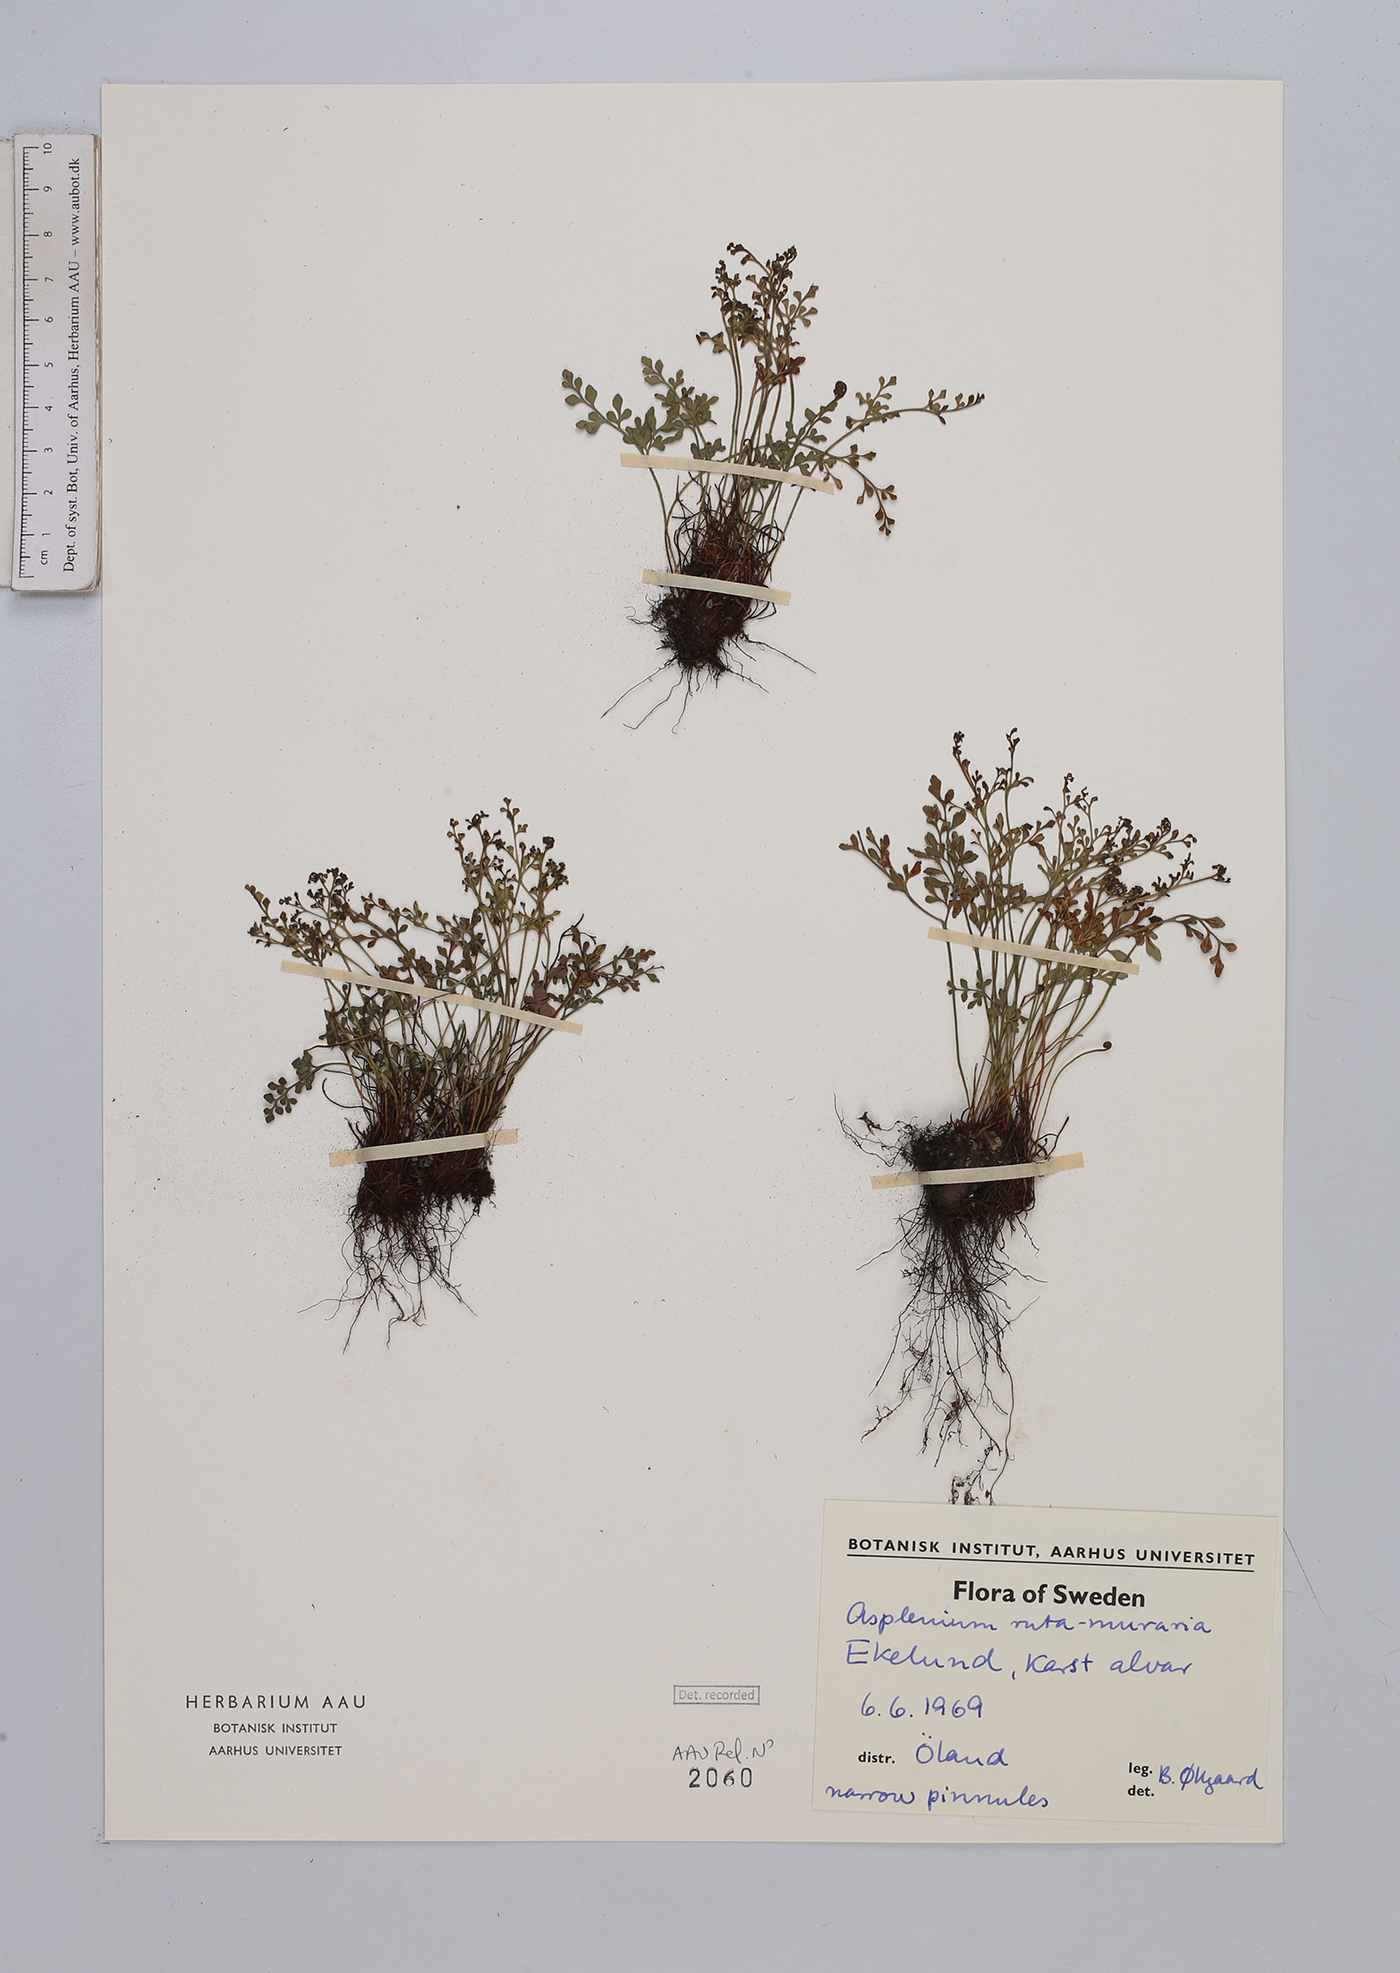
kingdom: Plantae
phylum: Tracheophyta
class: Polypodiopsida
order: Polypodiales
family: Aspleniaceae
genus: Asplenium
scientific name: Asplenium ruta-muraria
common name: Wall-rue
